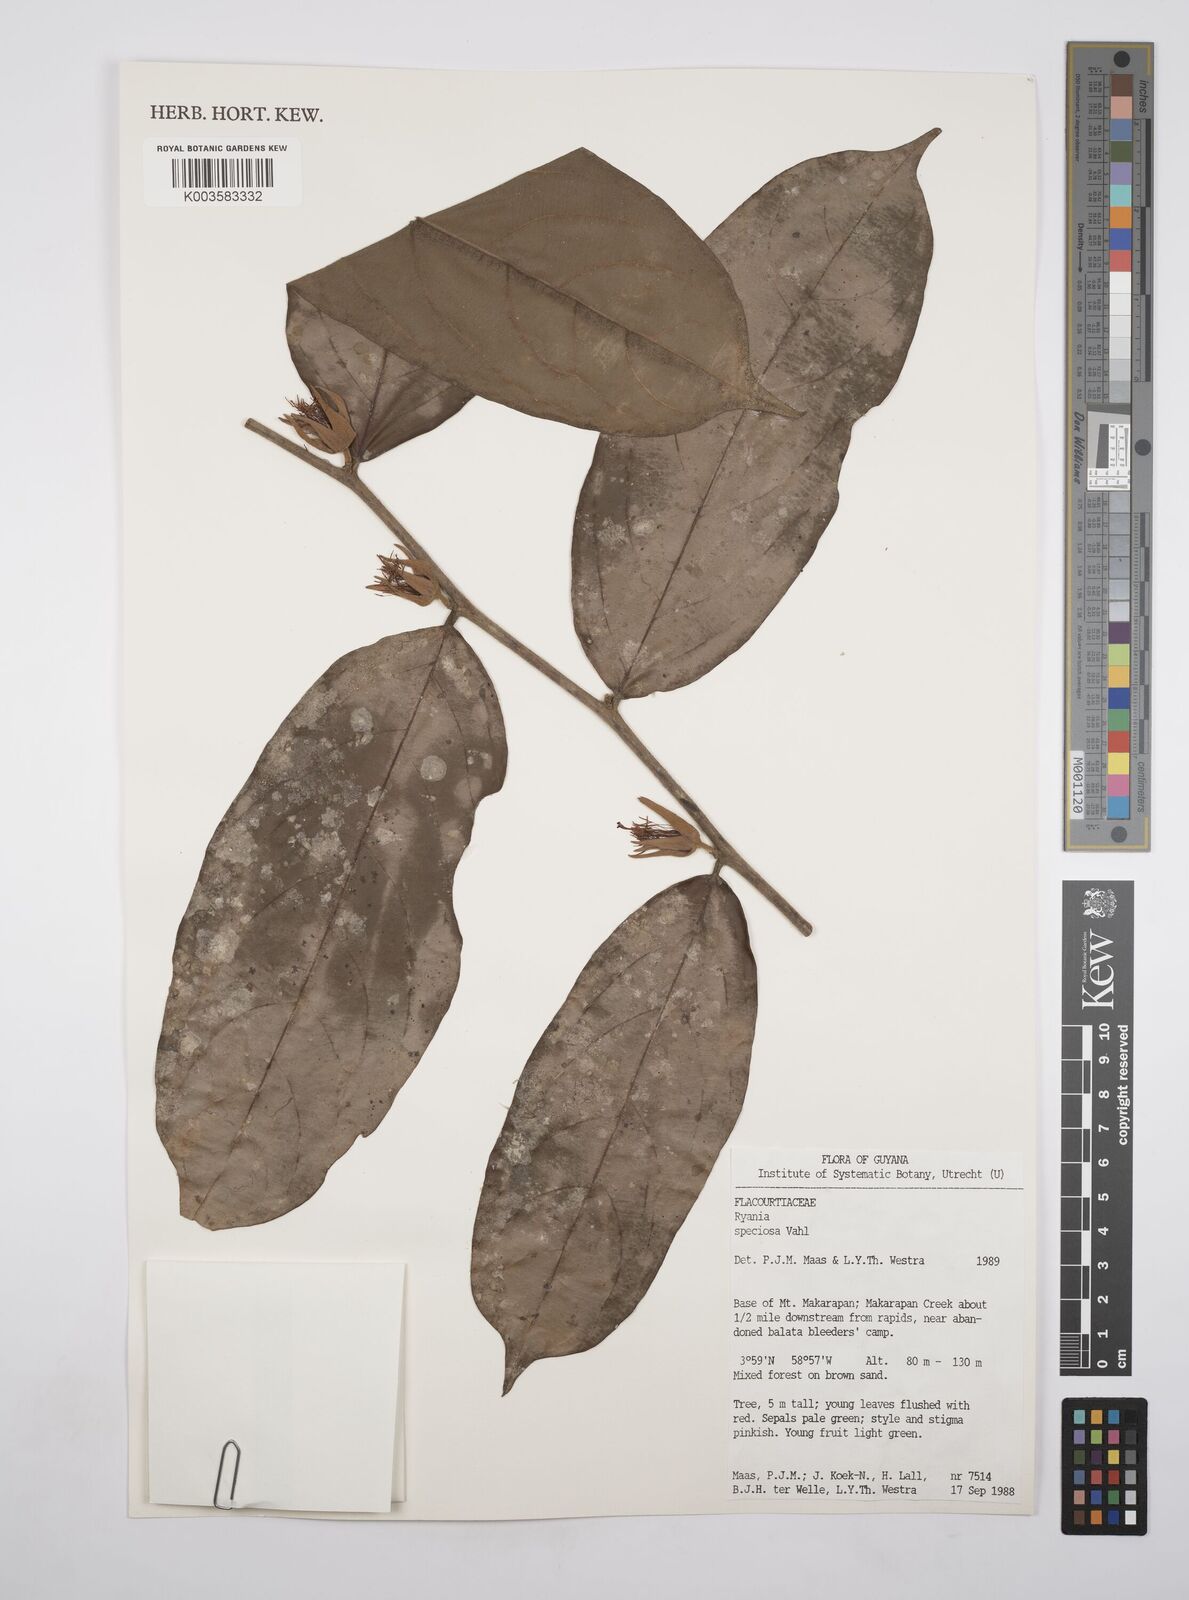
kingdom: Plantae
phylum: Tracheophyta
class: Magnoliopsida
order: Malpighiales
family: Salicaceae
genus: Ryania
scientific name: Ryania speciosa
